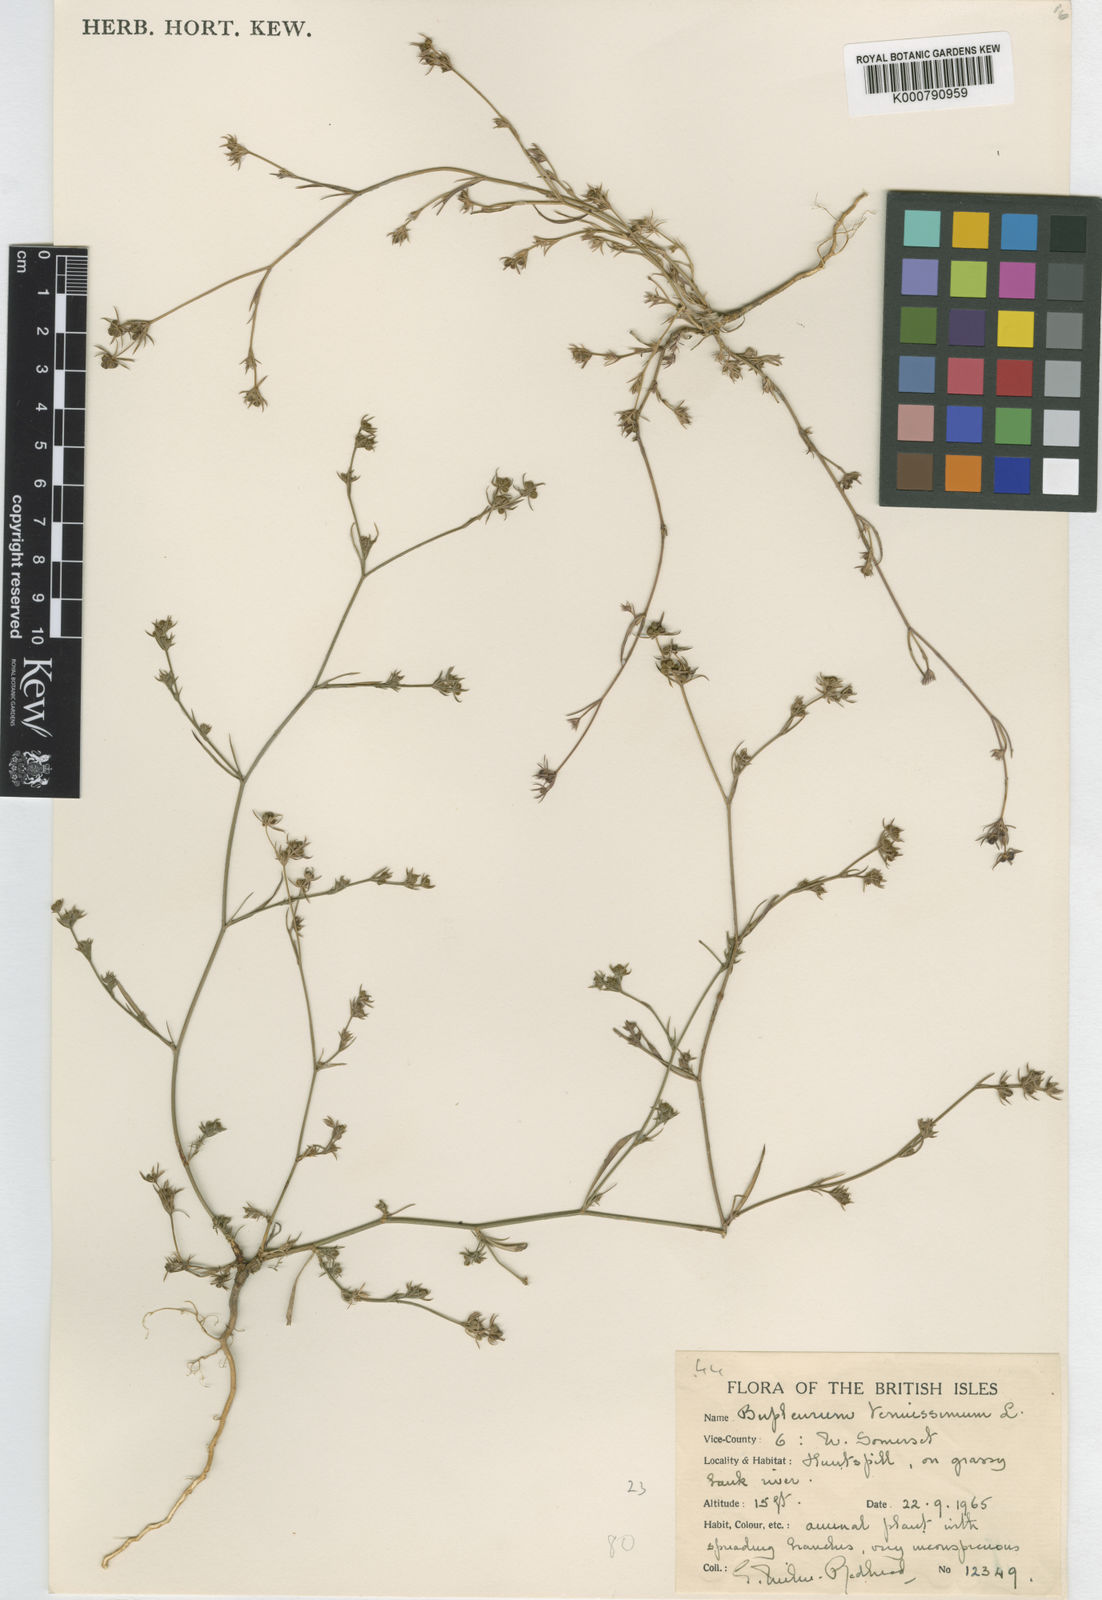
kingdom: Plantae
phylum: Tracheophyta
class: Magnoliopsida
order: Apiales
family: Apiaceae
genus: Bupleurum
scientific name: Bupleurum tenuissimum
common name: Slender hare's-ear
